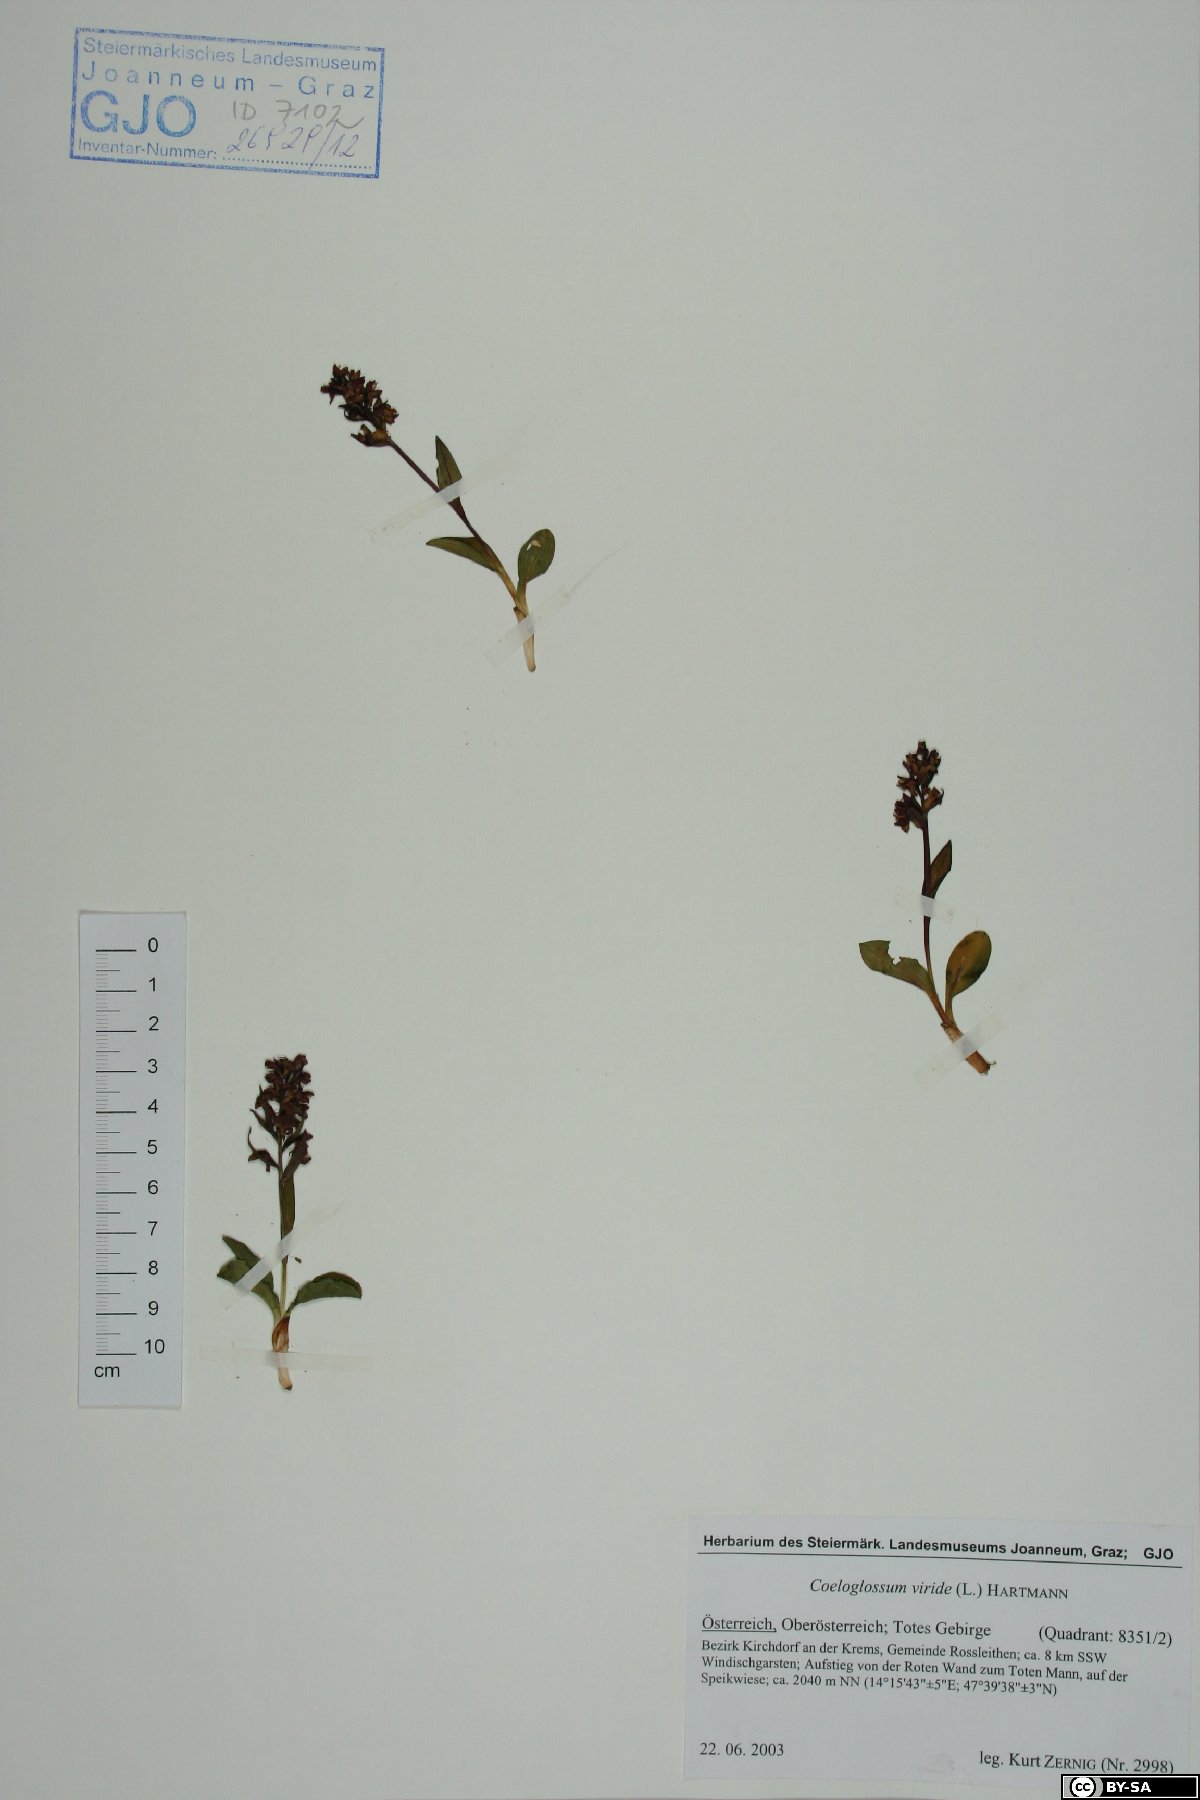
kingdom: Plantae
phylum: Tracheophyta
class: Liliopsida
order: Asparagales
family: Orchidaceae
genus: Dactylorhiza
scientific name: Dactylorhiza viridis
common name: Longbract frog orchid
